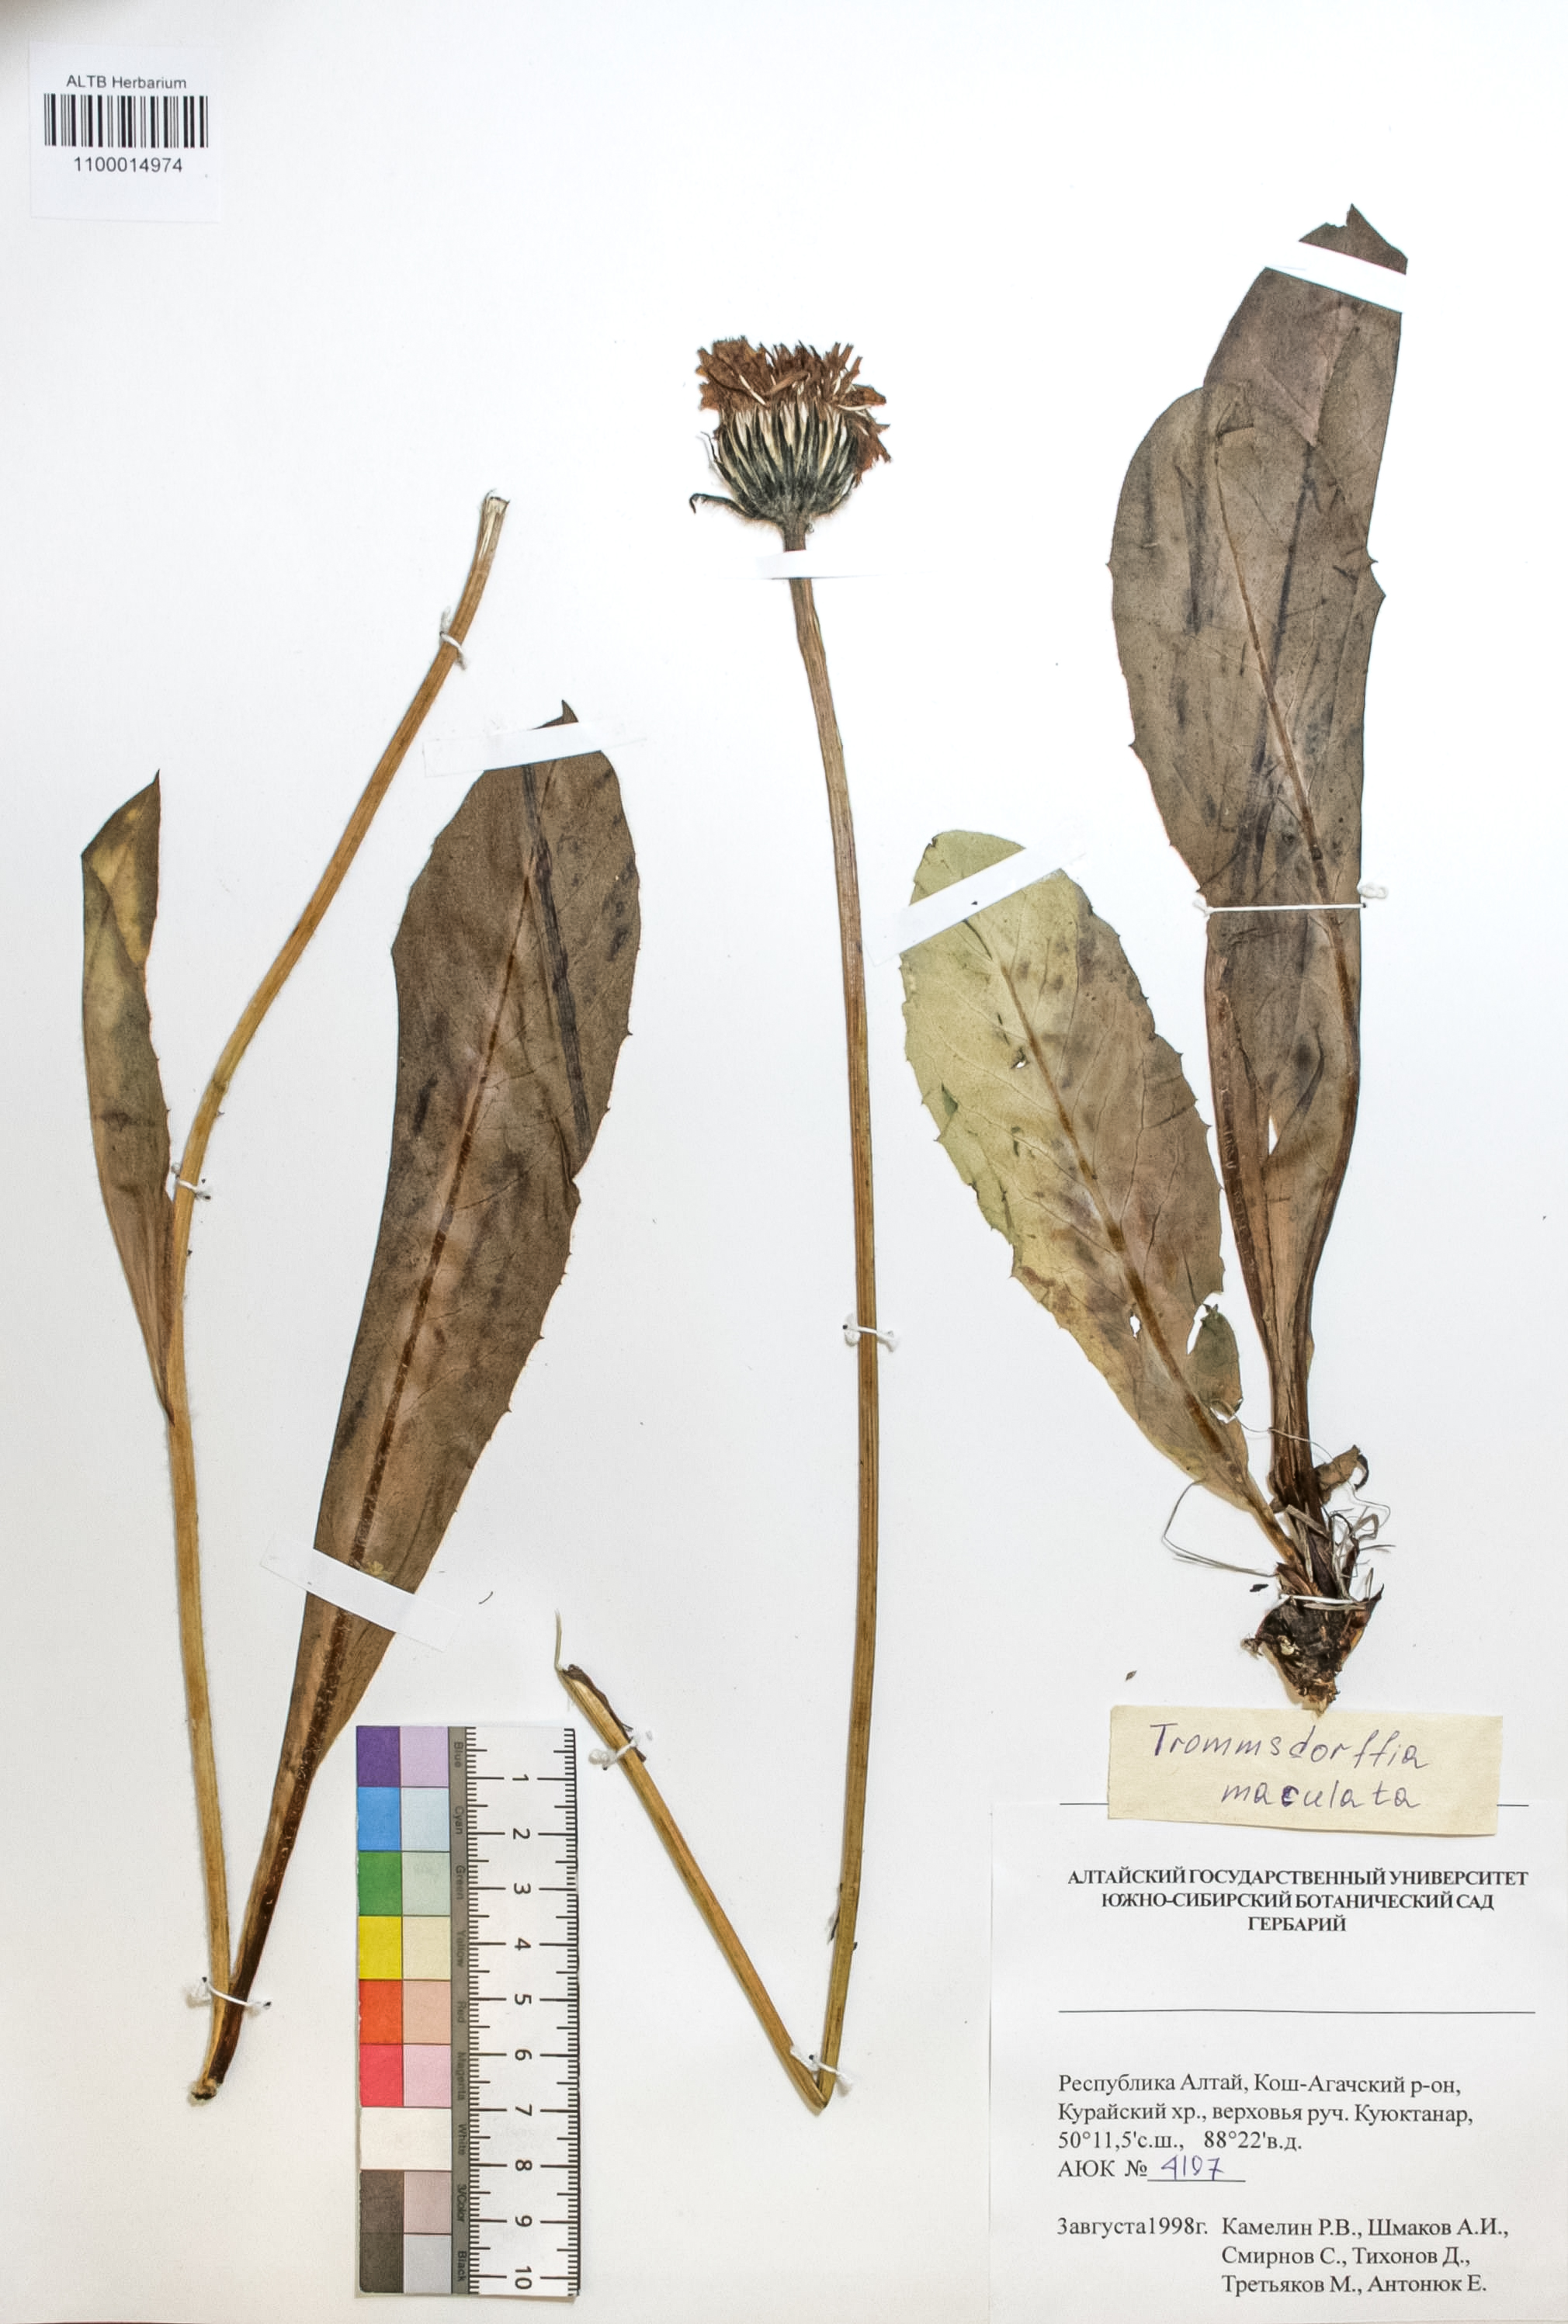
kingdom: Plantae
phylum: Tracheophyta
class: Magnoliopsida
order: Asterales
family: Asteraceae
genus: Trommsdorffia
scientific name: Trommsdorffia maculata
